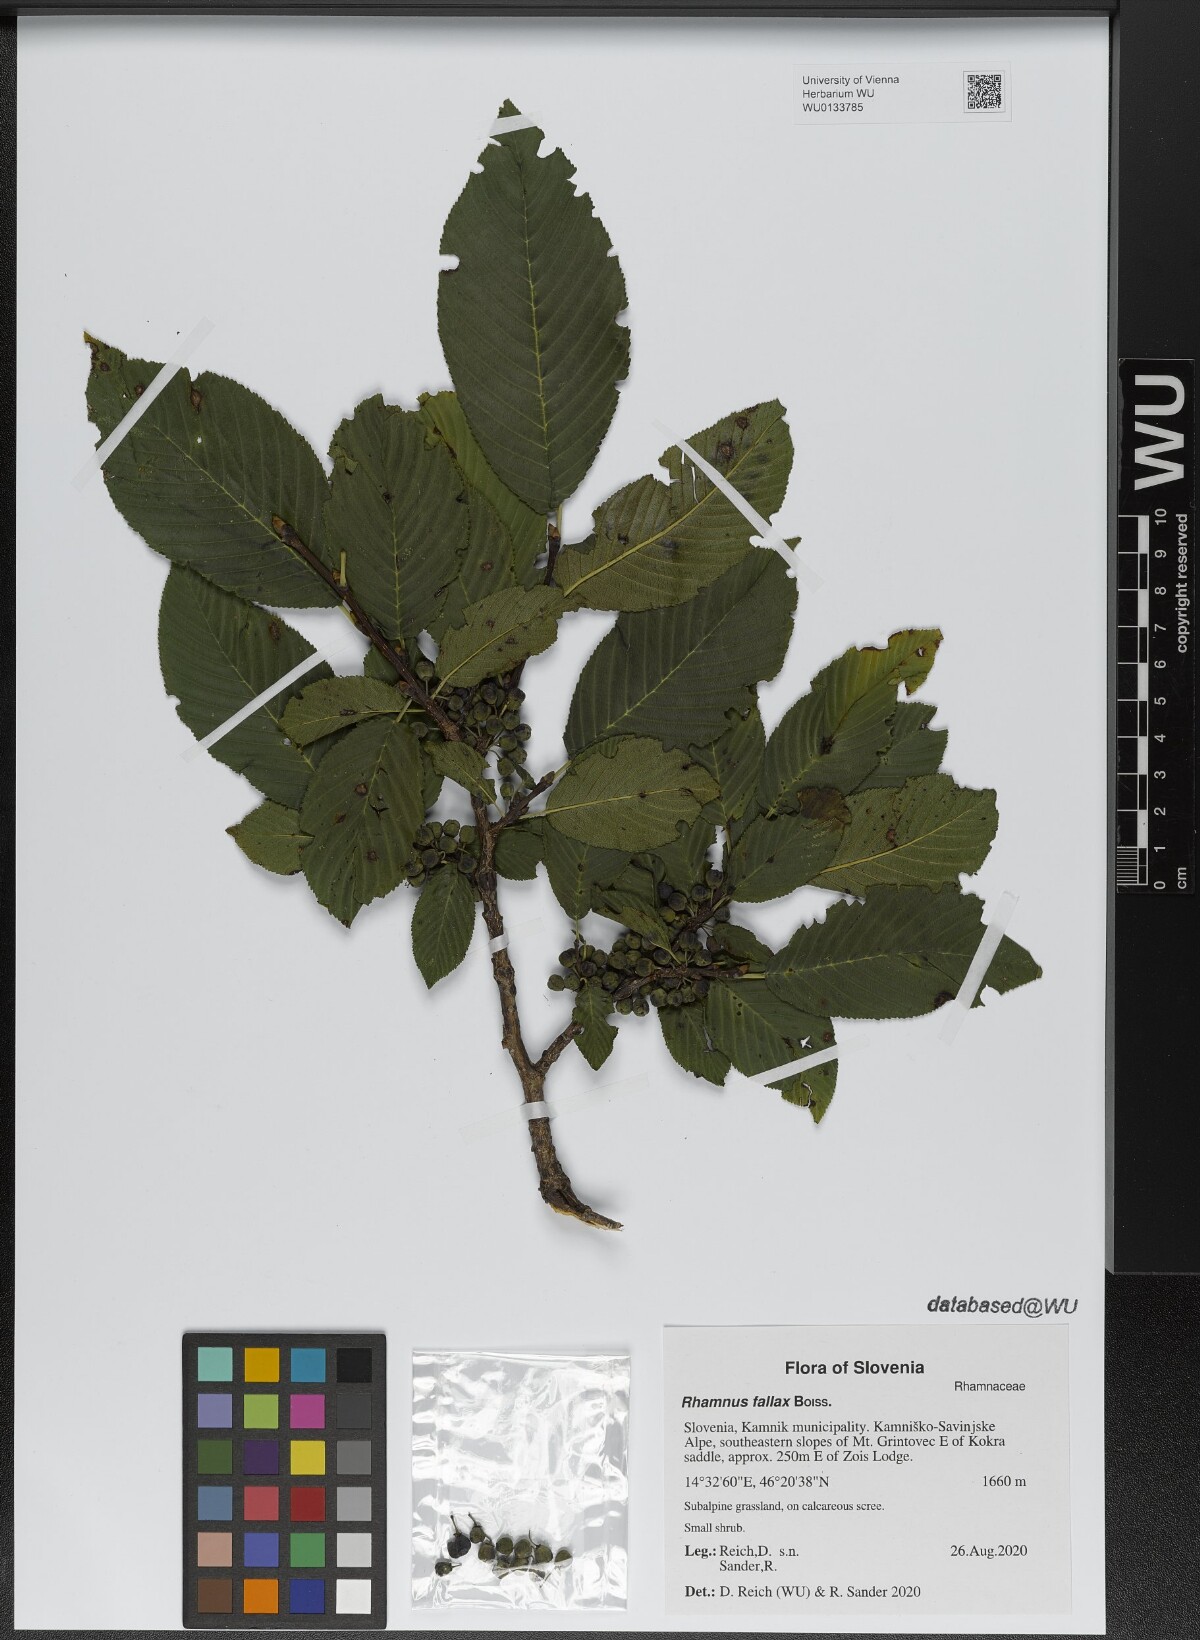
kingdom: Plantae
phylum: Tracheophyta
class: Magnoliopsida
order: Rosales
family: Rhamnaceae
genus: Atadinus
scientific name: Atadinus fallax
